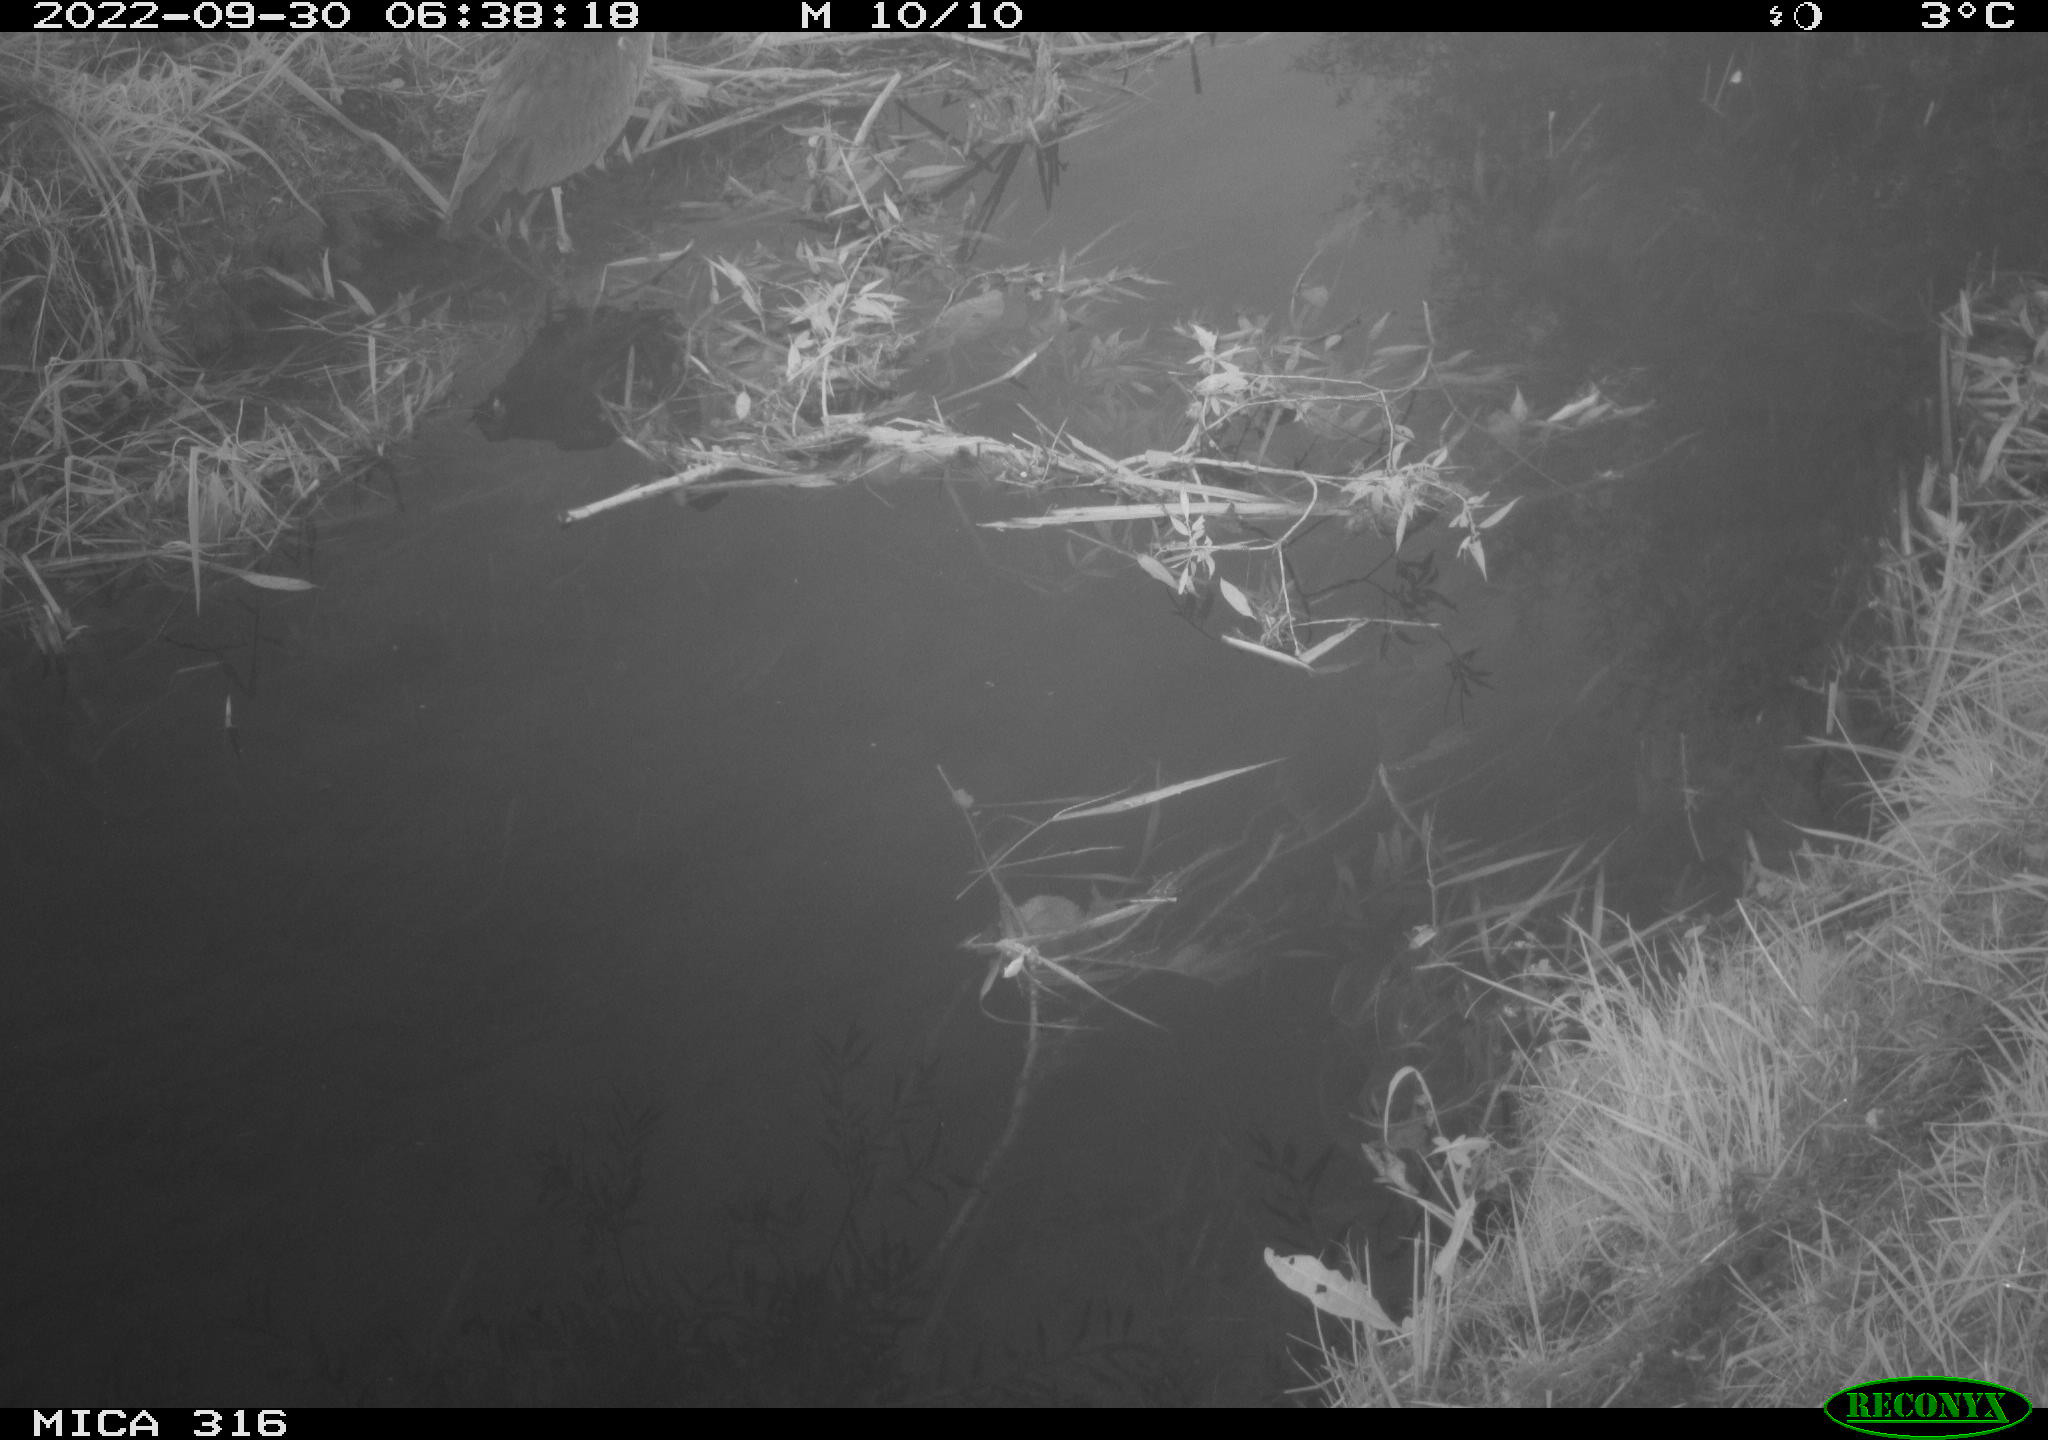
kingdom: Animalia
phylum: Chordata
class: Aves
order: Pelecaniformes
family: Ardeidae
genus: Ardea
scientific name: Ardea cinerea
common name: Grey heron
